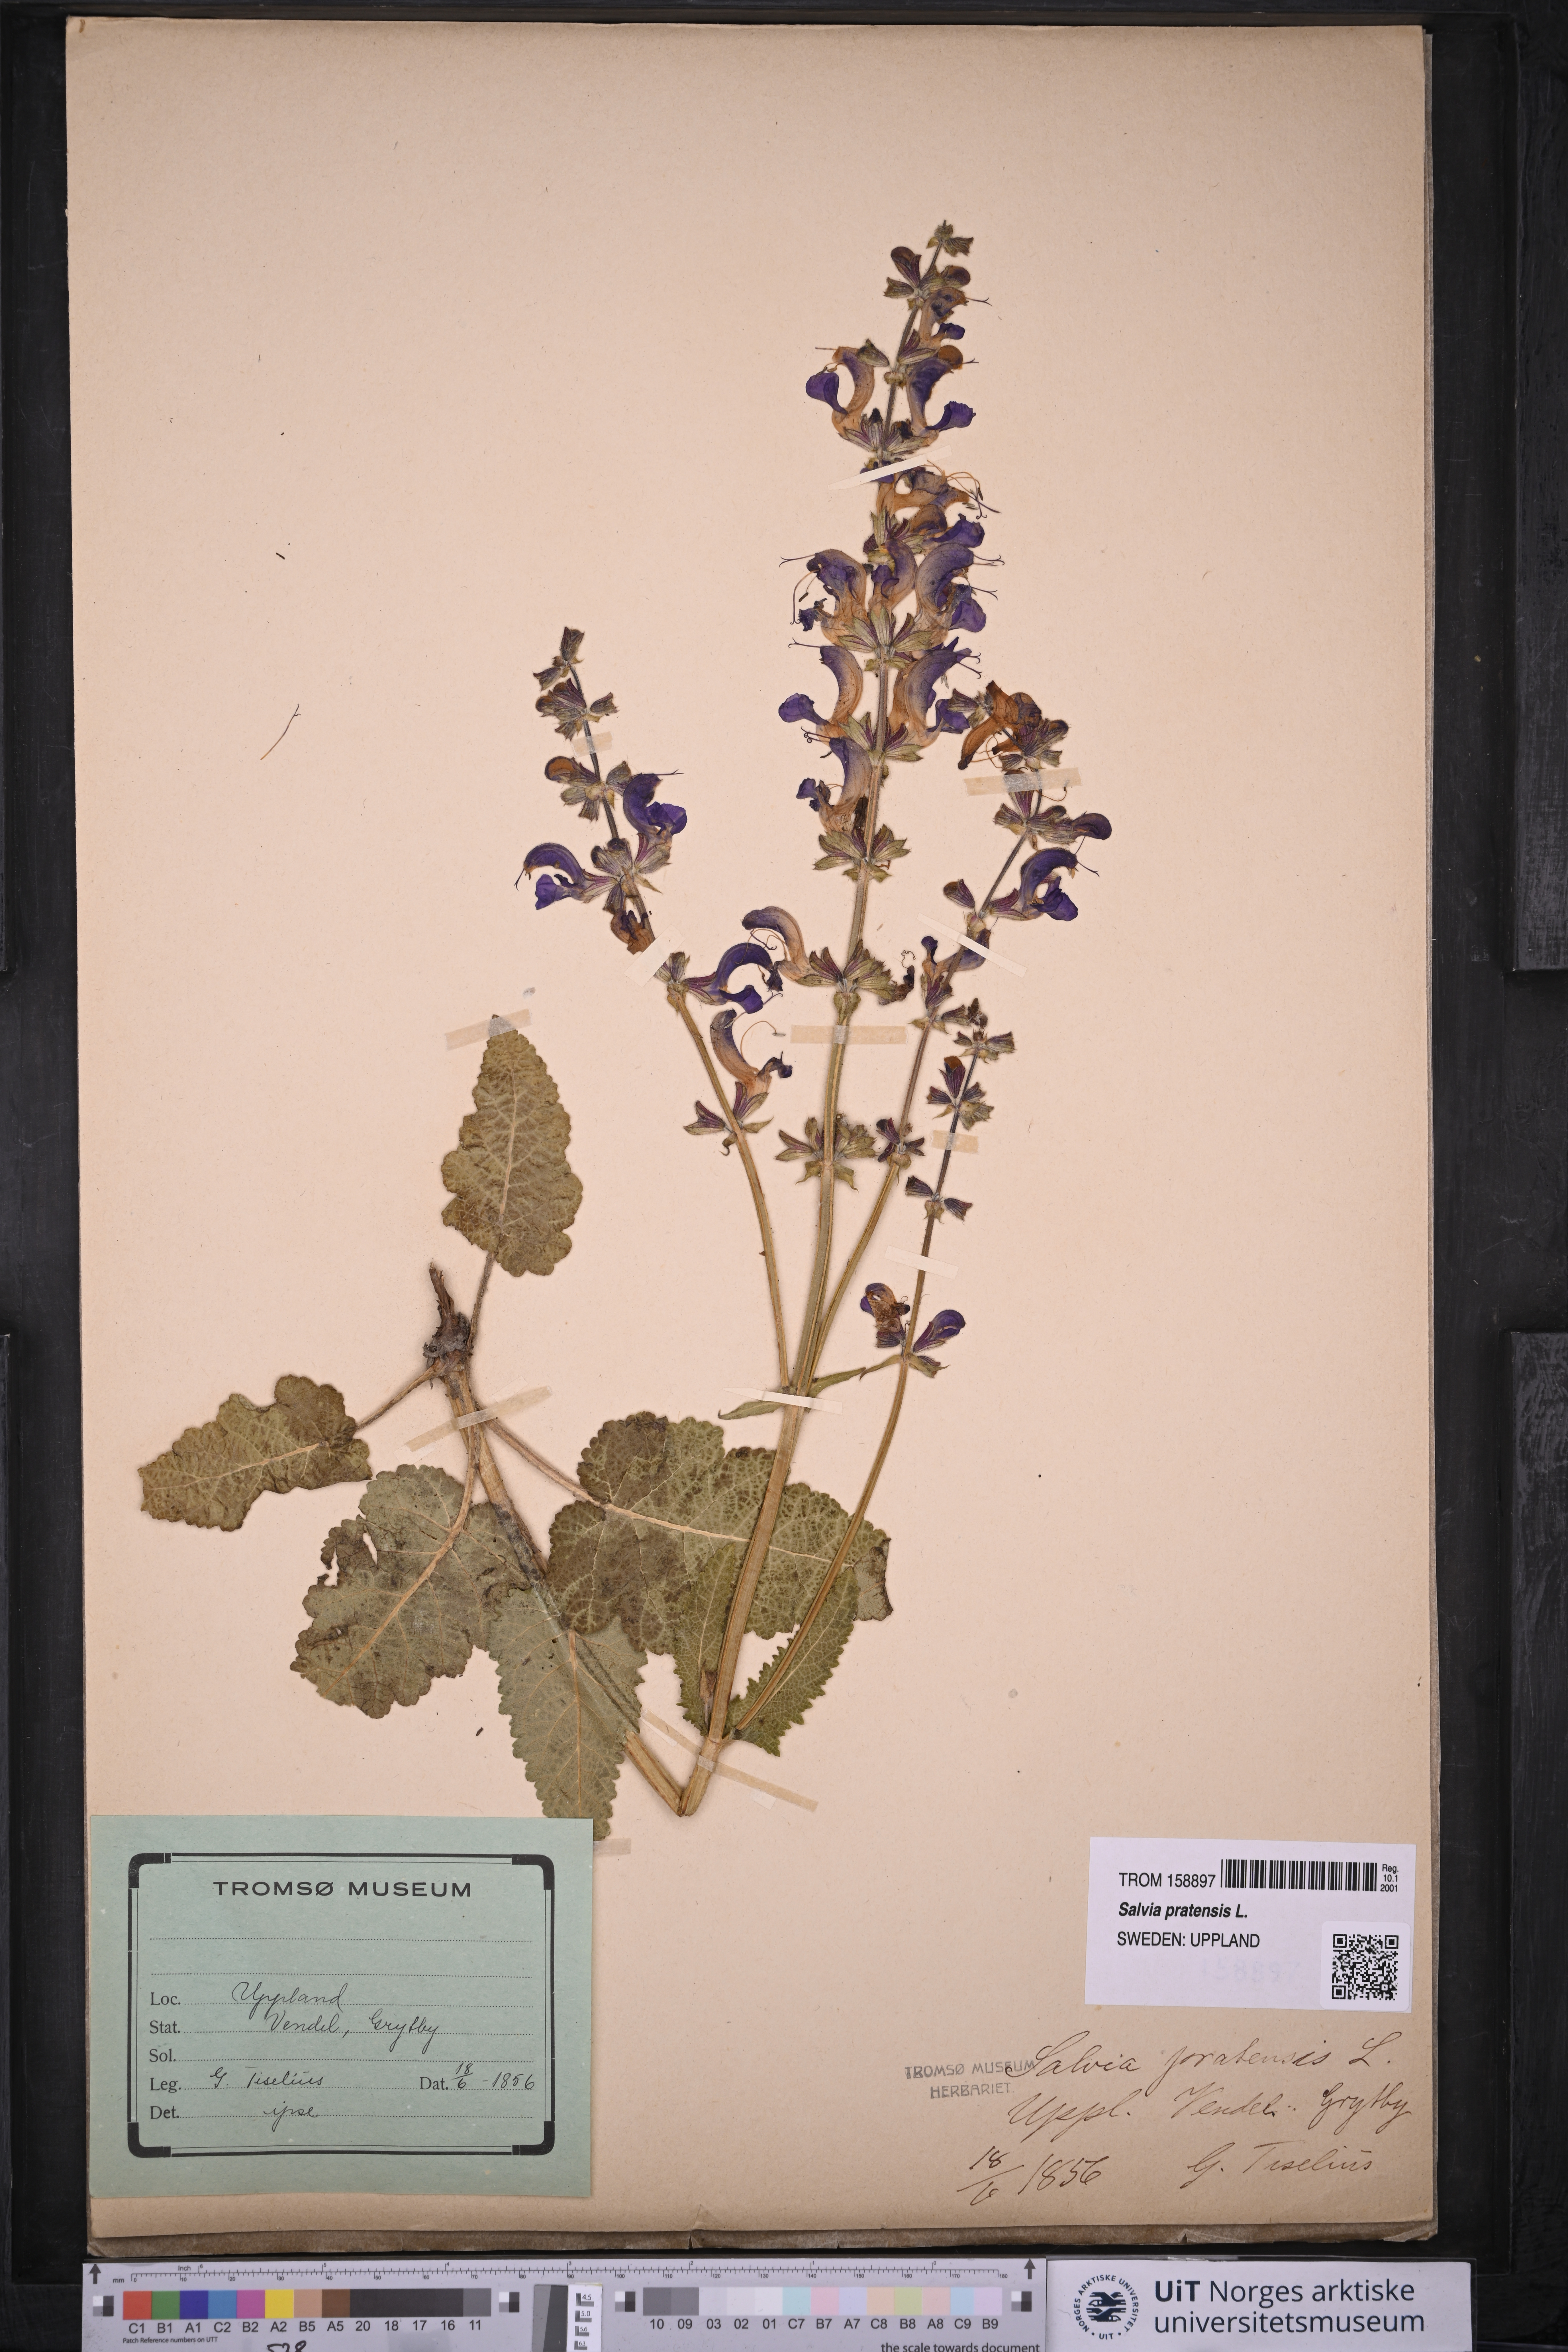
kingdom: Plantae
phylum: Tracheophyta
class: Magnoliopsida
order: Lamiales
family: Lamiaceae
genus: Salvia
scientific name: Salvia pratensis
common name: Meadow sage
